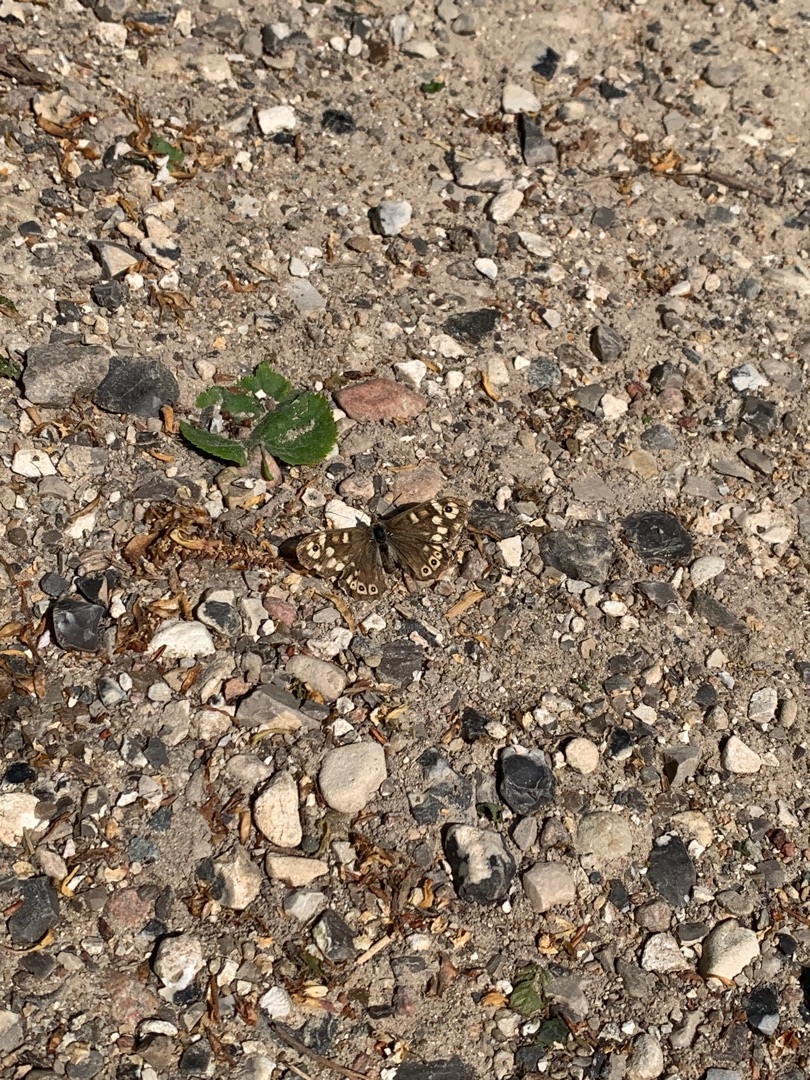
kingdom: Animalia
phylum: Arthropoda
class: Insecta
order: Lepidoptera
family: Nymphalidae
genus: Pararge
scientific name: Pararge aegeria
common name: Skovrandøje
